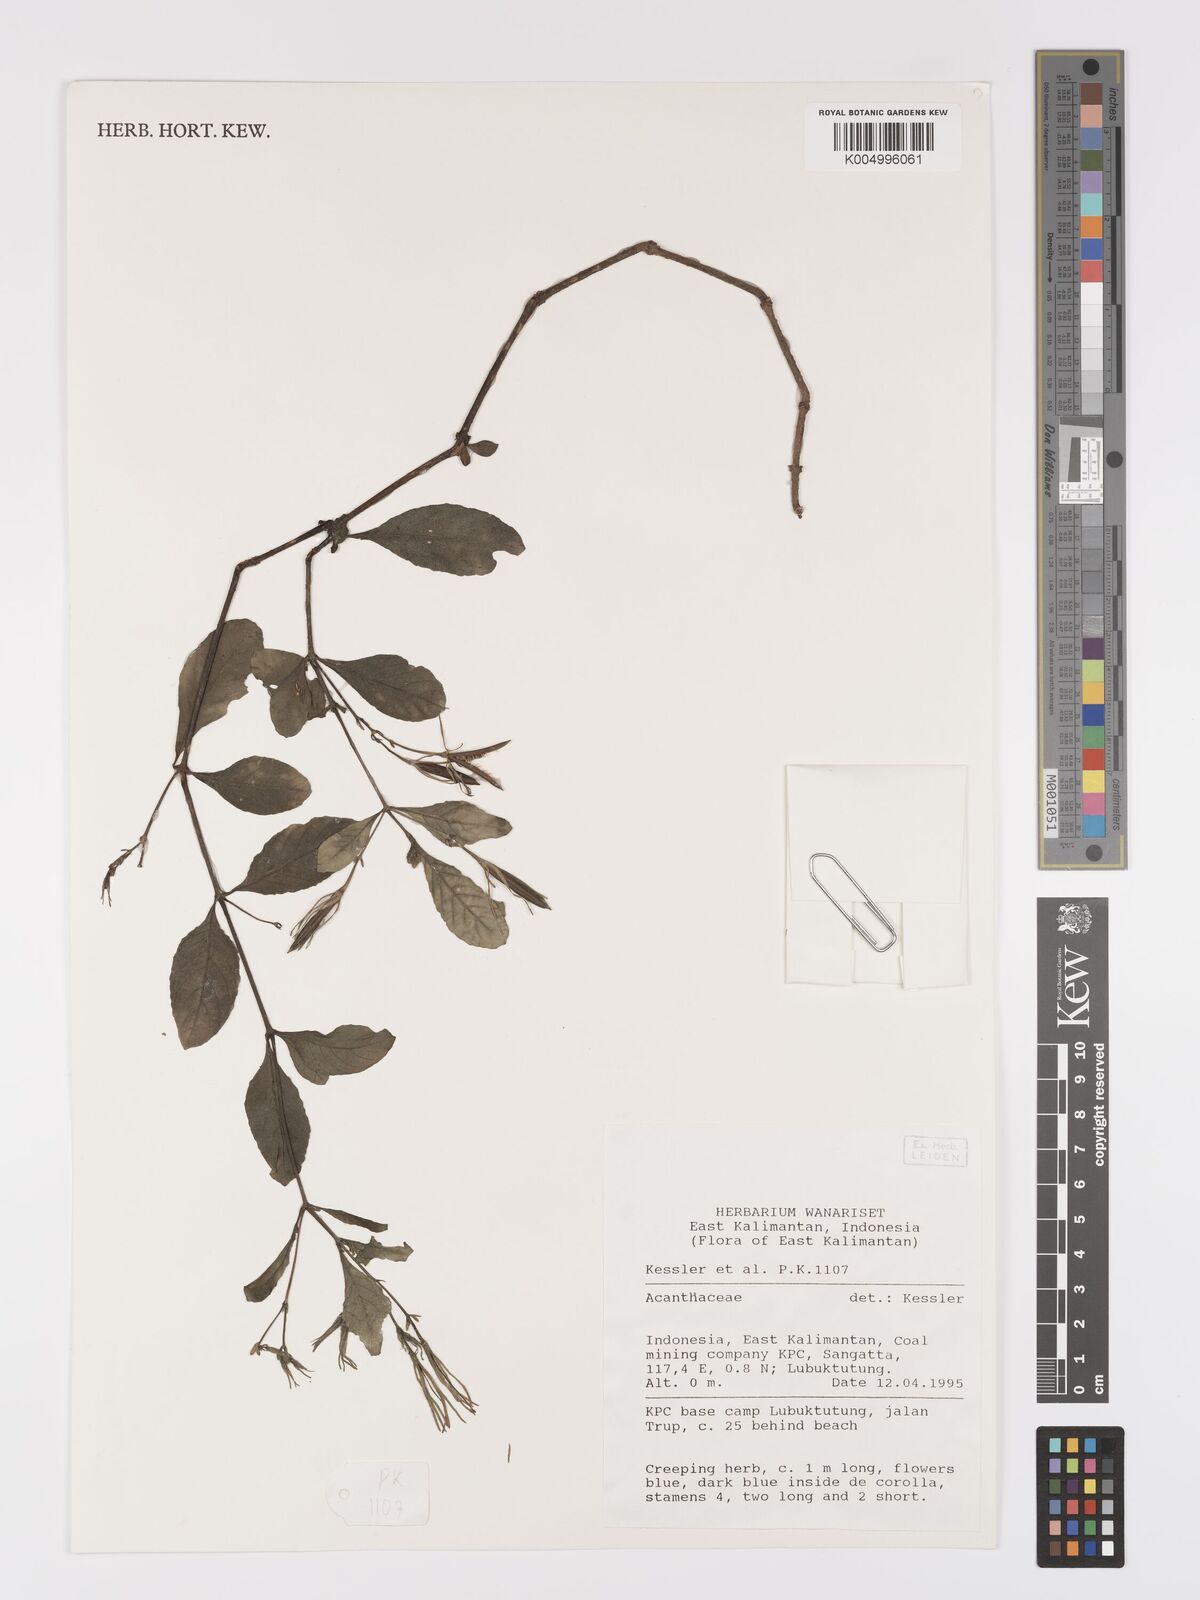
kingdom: Plantae
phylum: Tracheophyta
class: Magnoliopsida
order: Lamiales
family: Acanthaceae
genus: Ruellia
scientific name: Ruellia tuberosa
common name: Devil's bit
